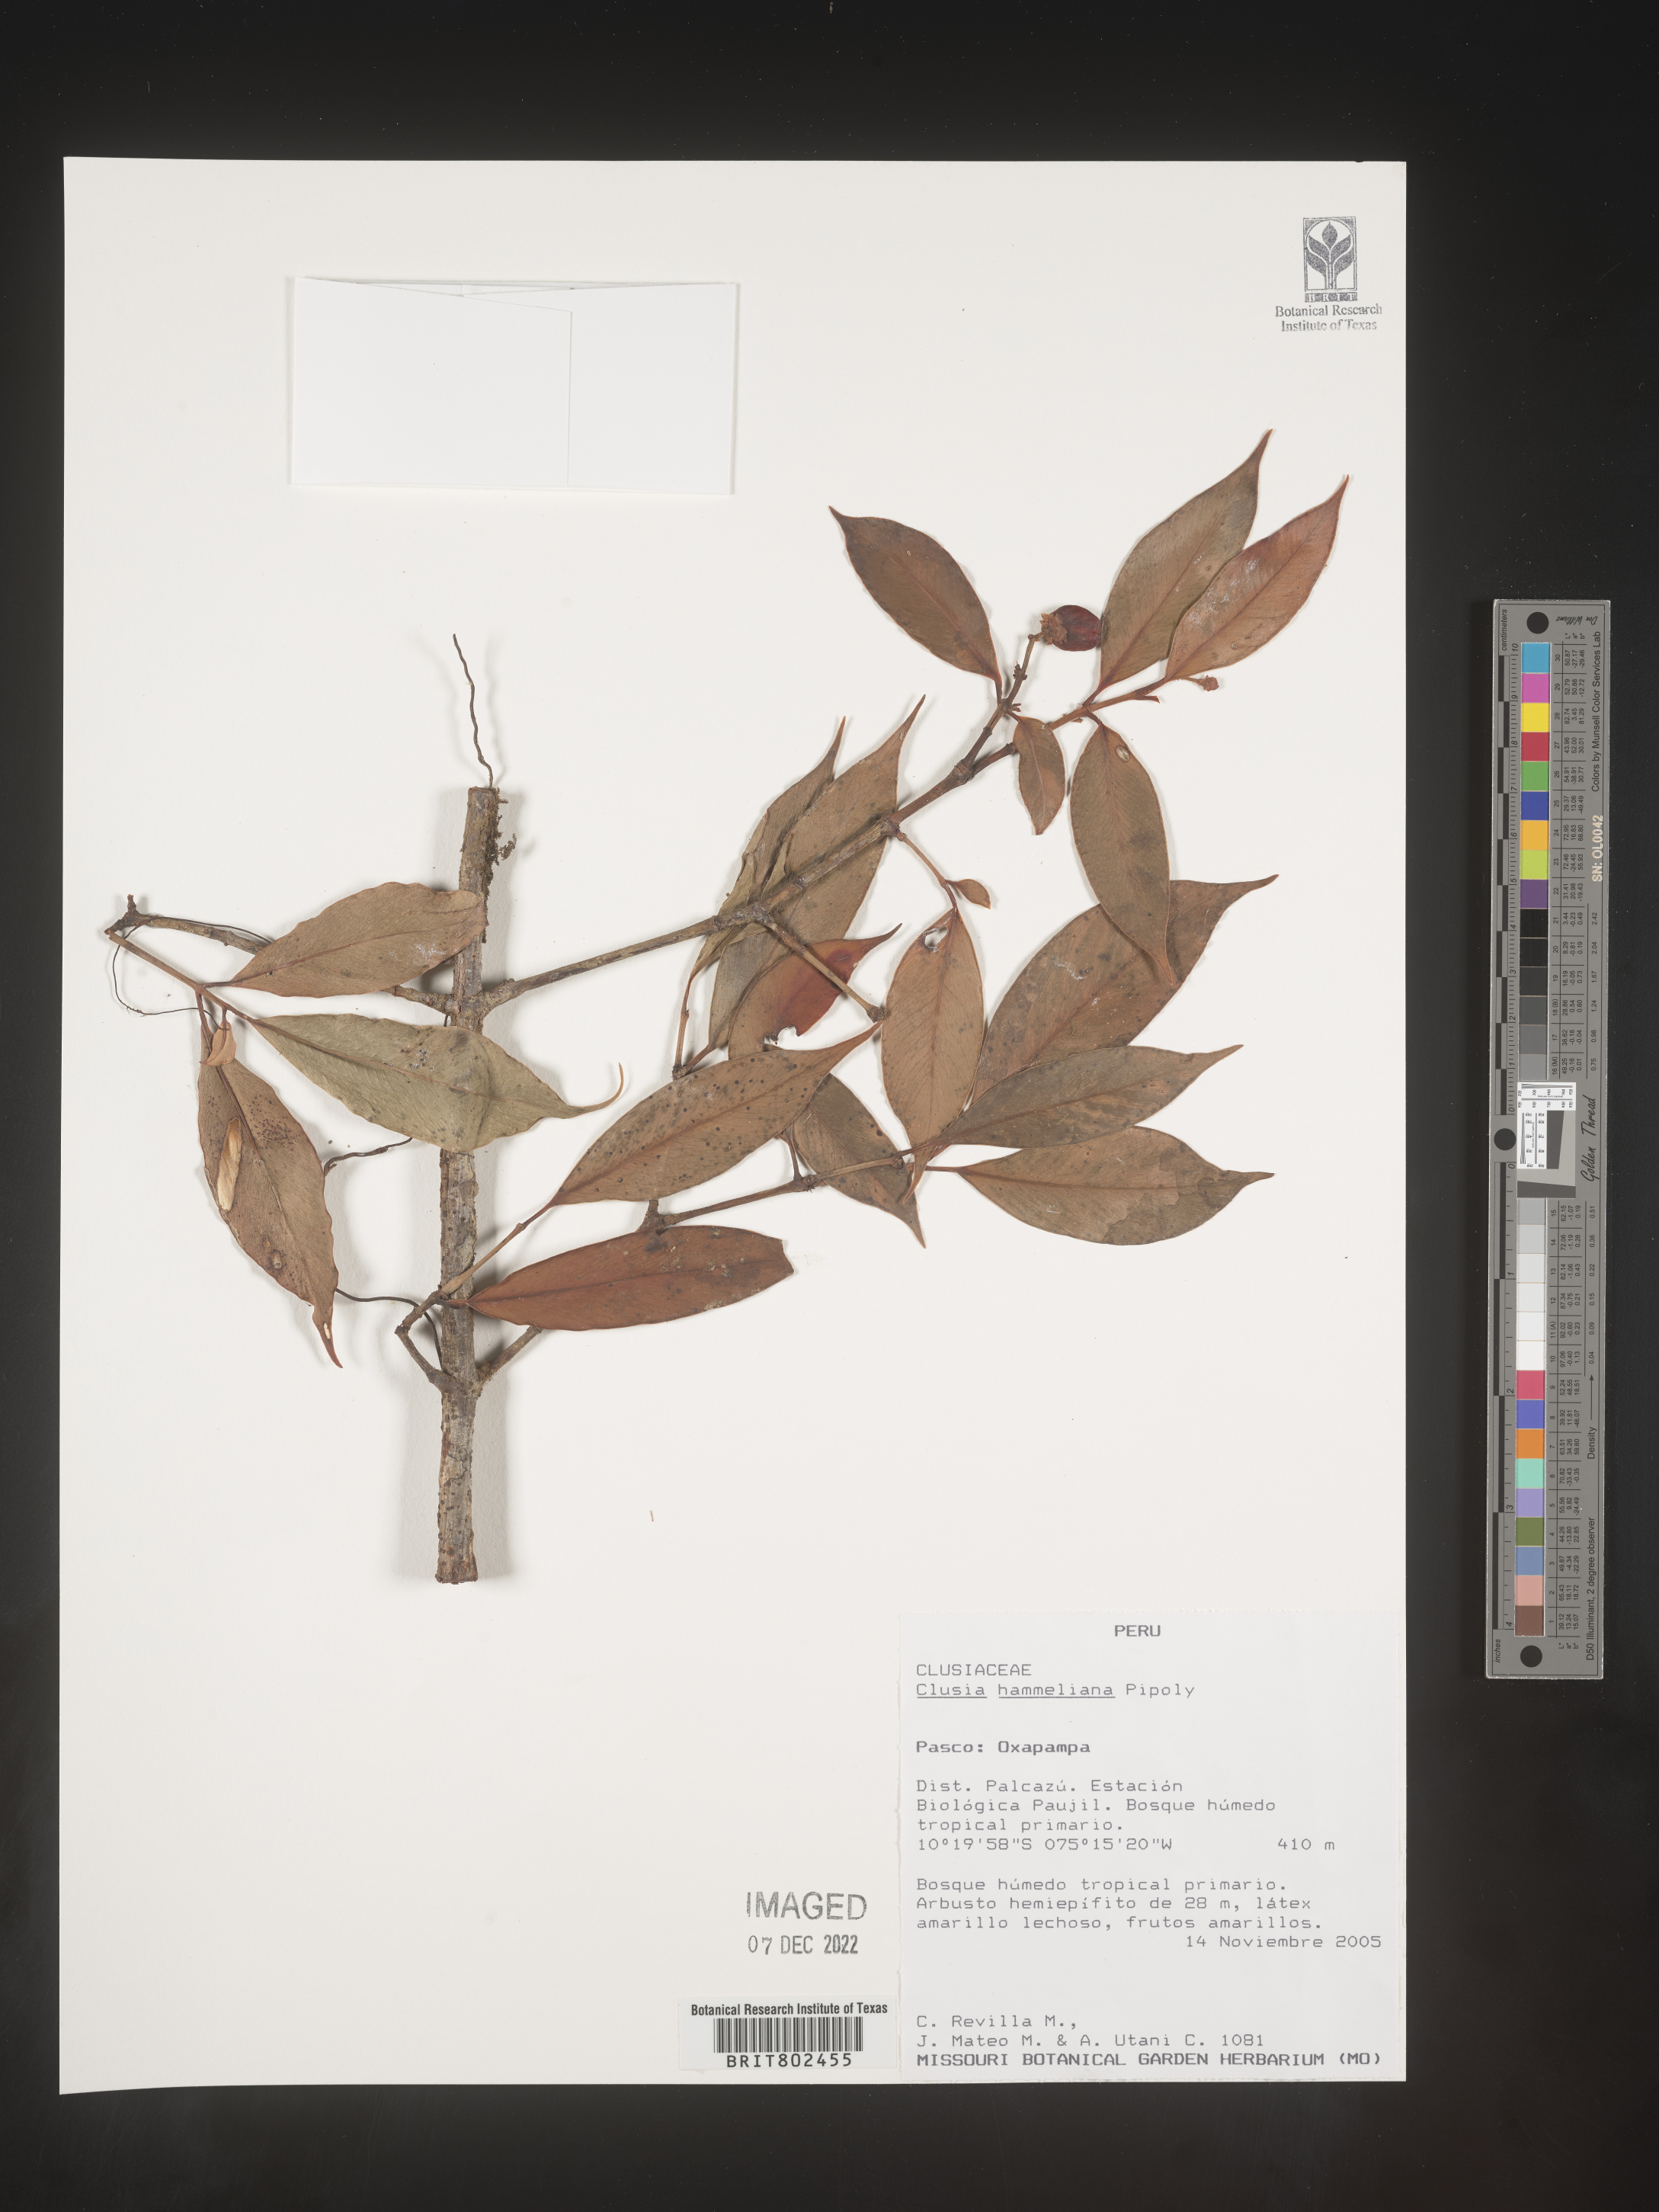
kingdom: Plantae
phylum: Tracheophyta
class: Magnoliopsida
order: Malpighiales
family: Clusiaceae
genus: Clusia
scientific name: Clusia hammeliana
